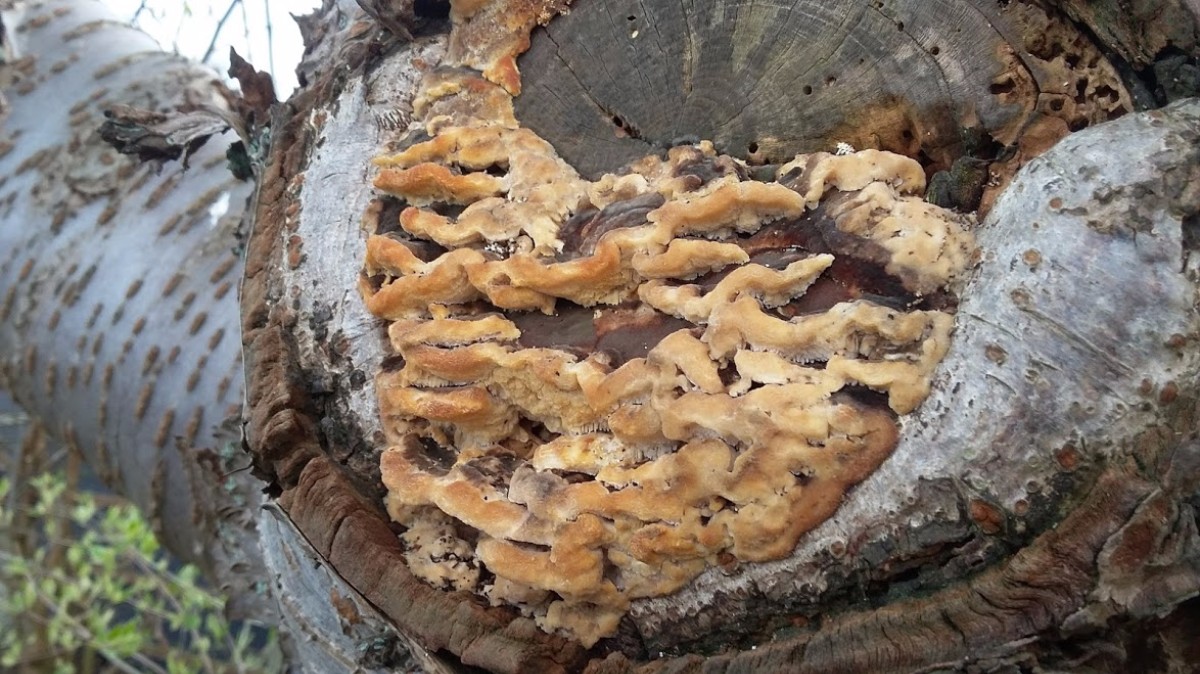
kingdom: Fungi
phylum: Basidiomycota
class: Agaricomycetes
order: Polyporales
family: Polyporaceae
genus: Trametes
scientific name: Trametes
